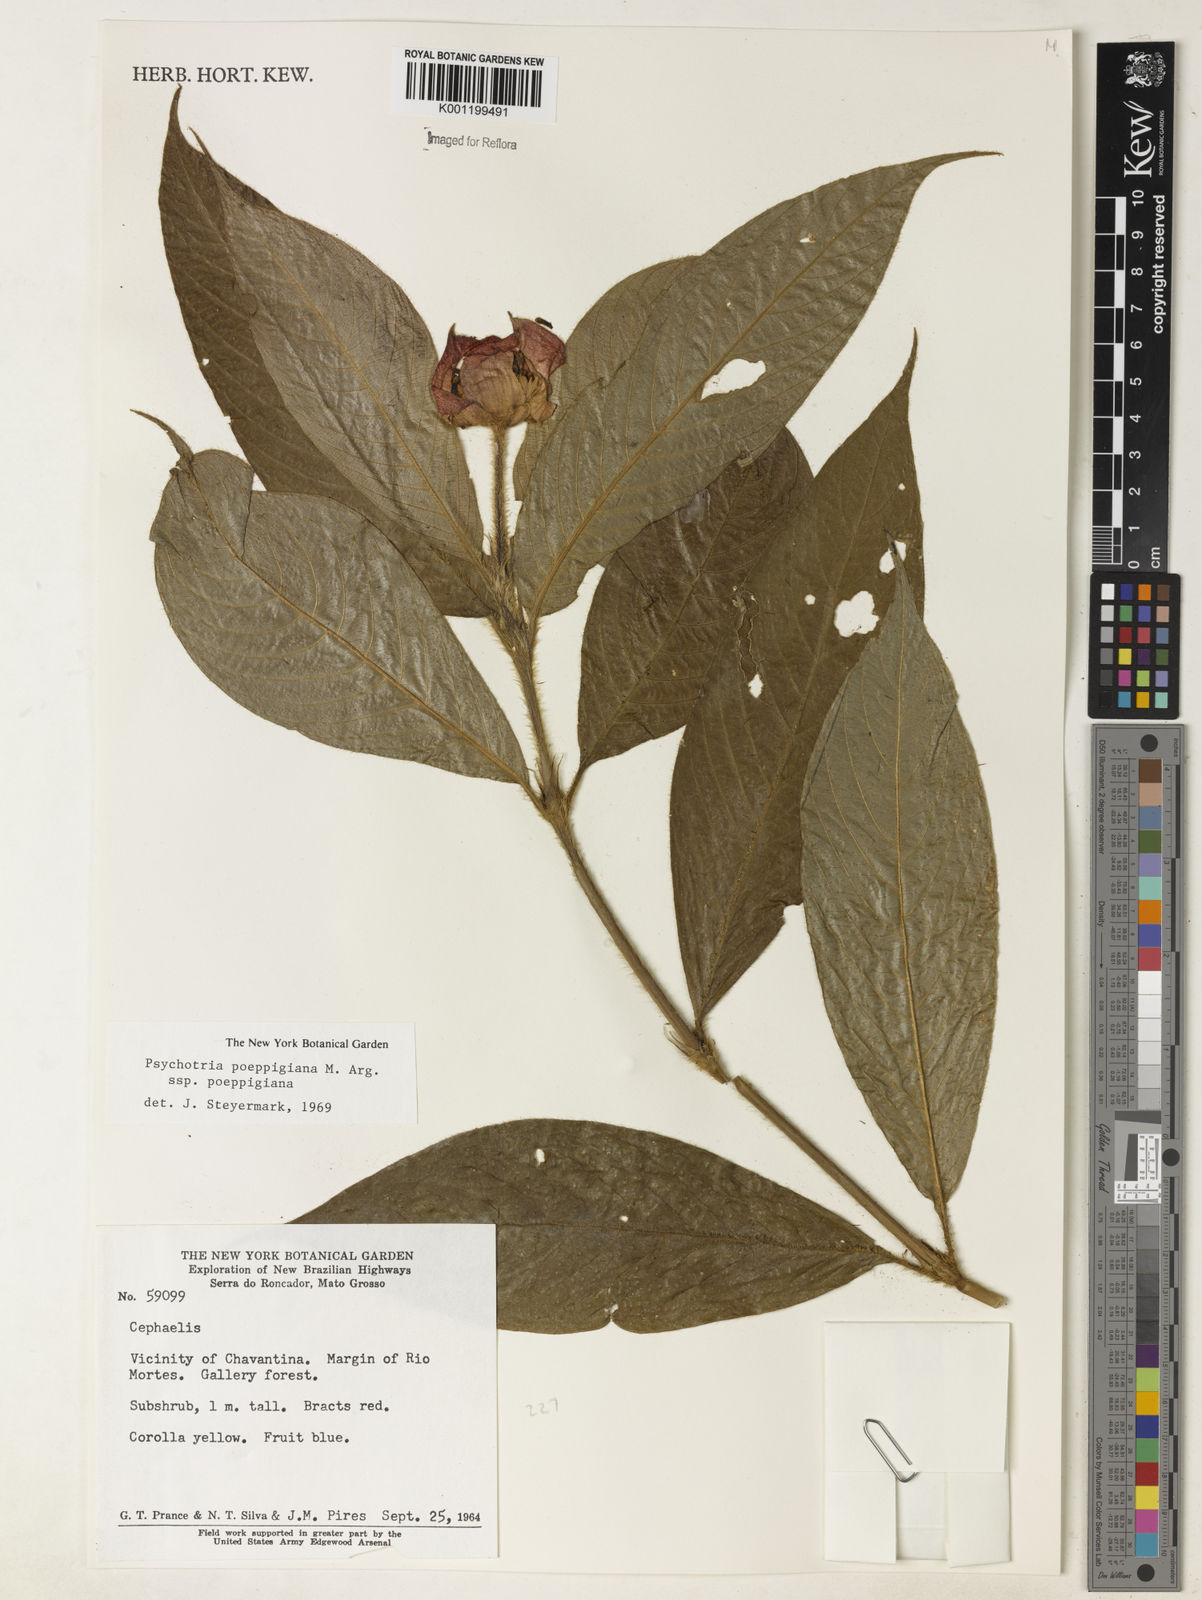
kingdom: Plantae
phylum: Tracheophyta
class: Magnoliopsida
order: Gentianales
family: Rubiaceae
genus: Psychotria
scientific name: Psychotria
